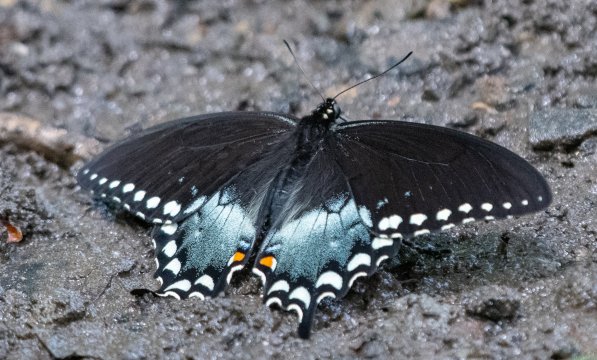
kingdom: Animalia
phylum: Arthropoda
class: Insecta
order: Lepidoptera
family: Papilionidae
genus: Pterourus
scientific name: Pterourus troilus
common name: Spicebush Swallowtail
